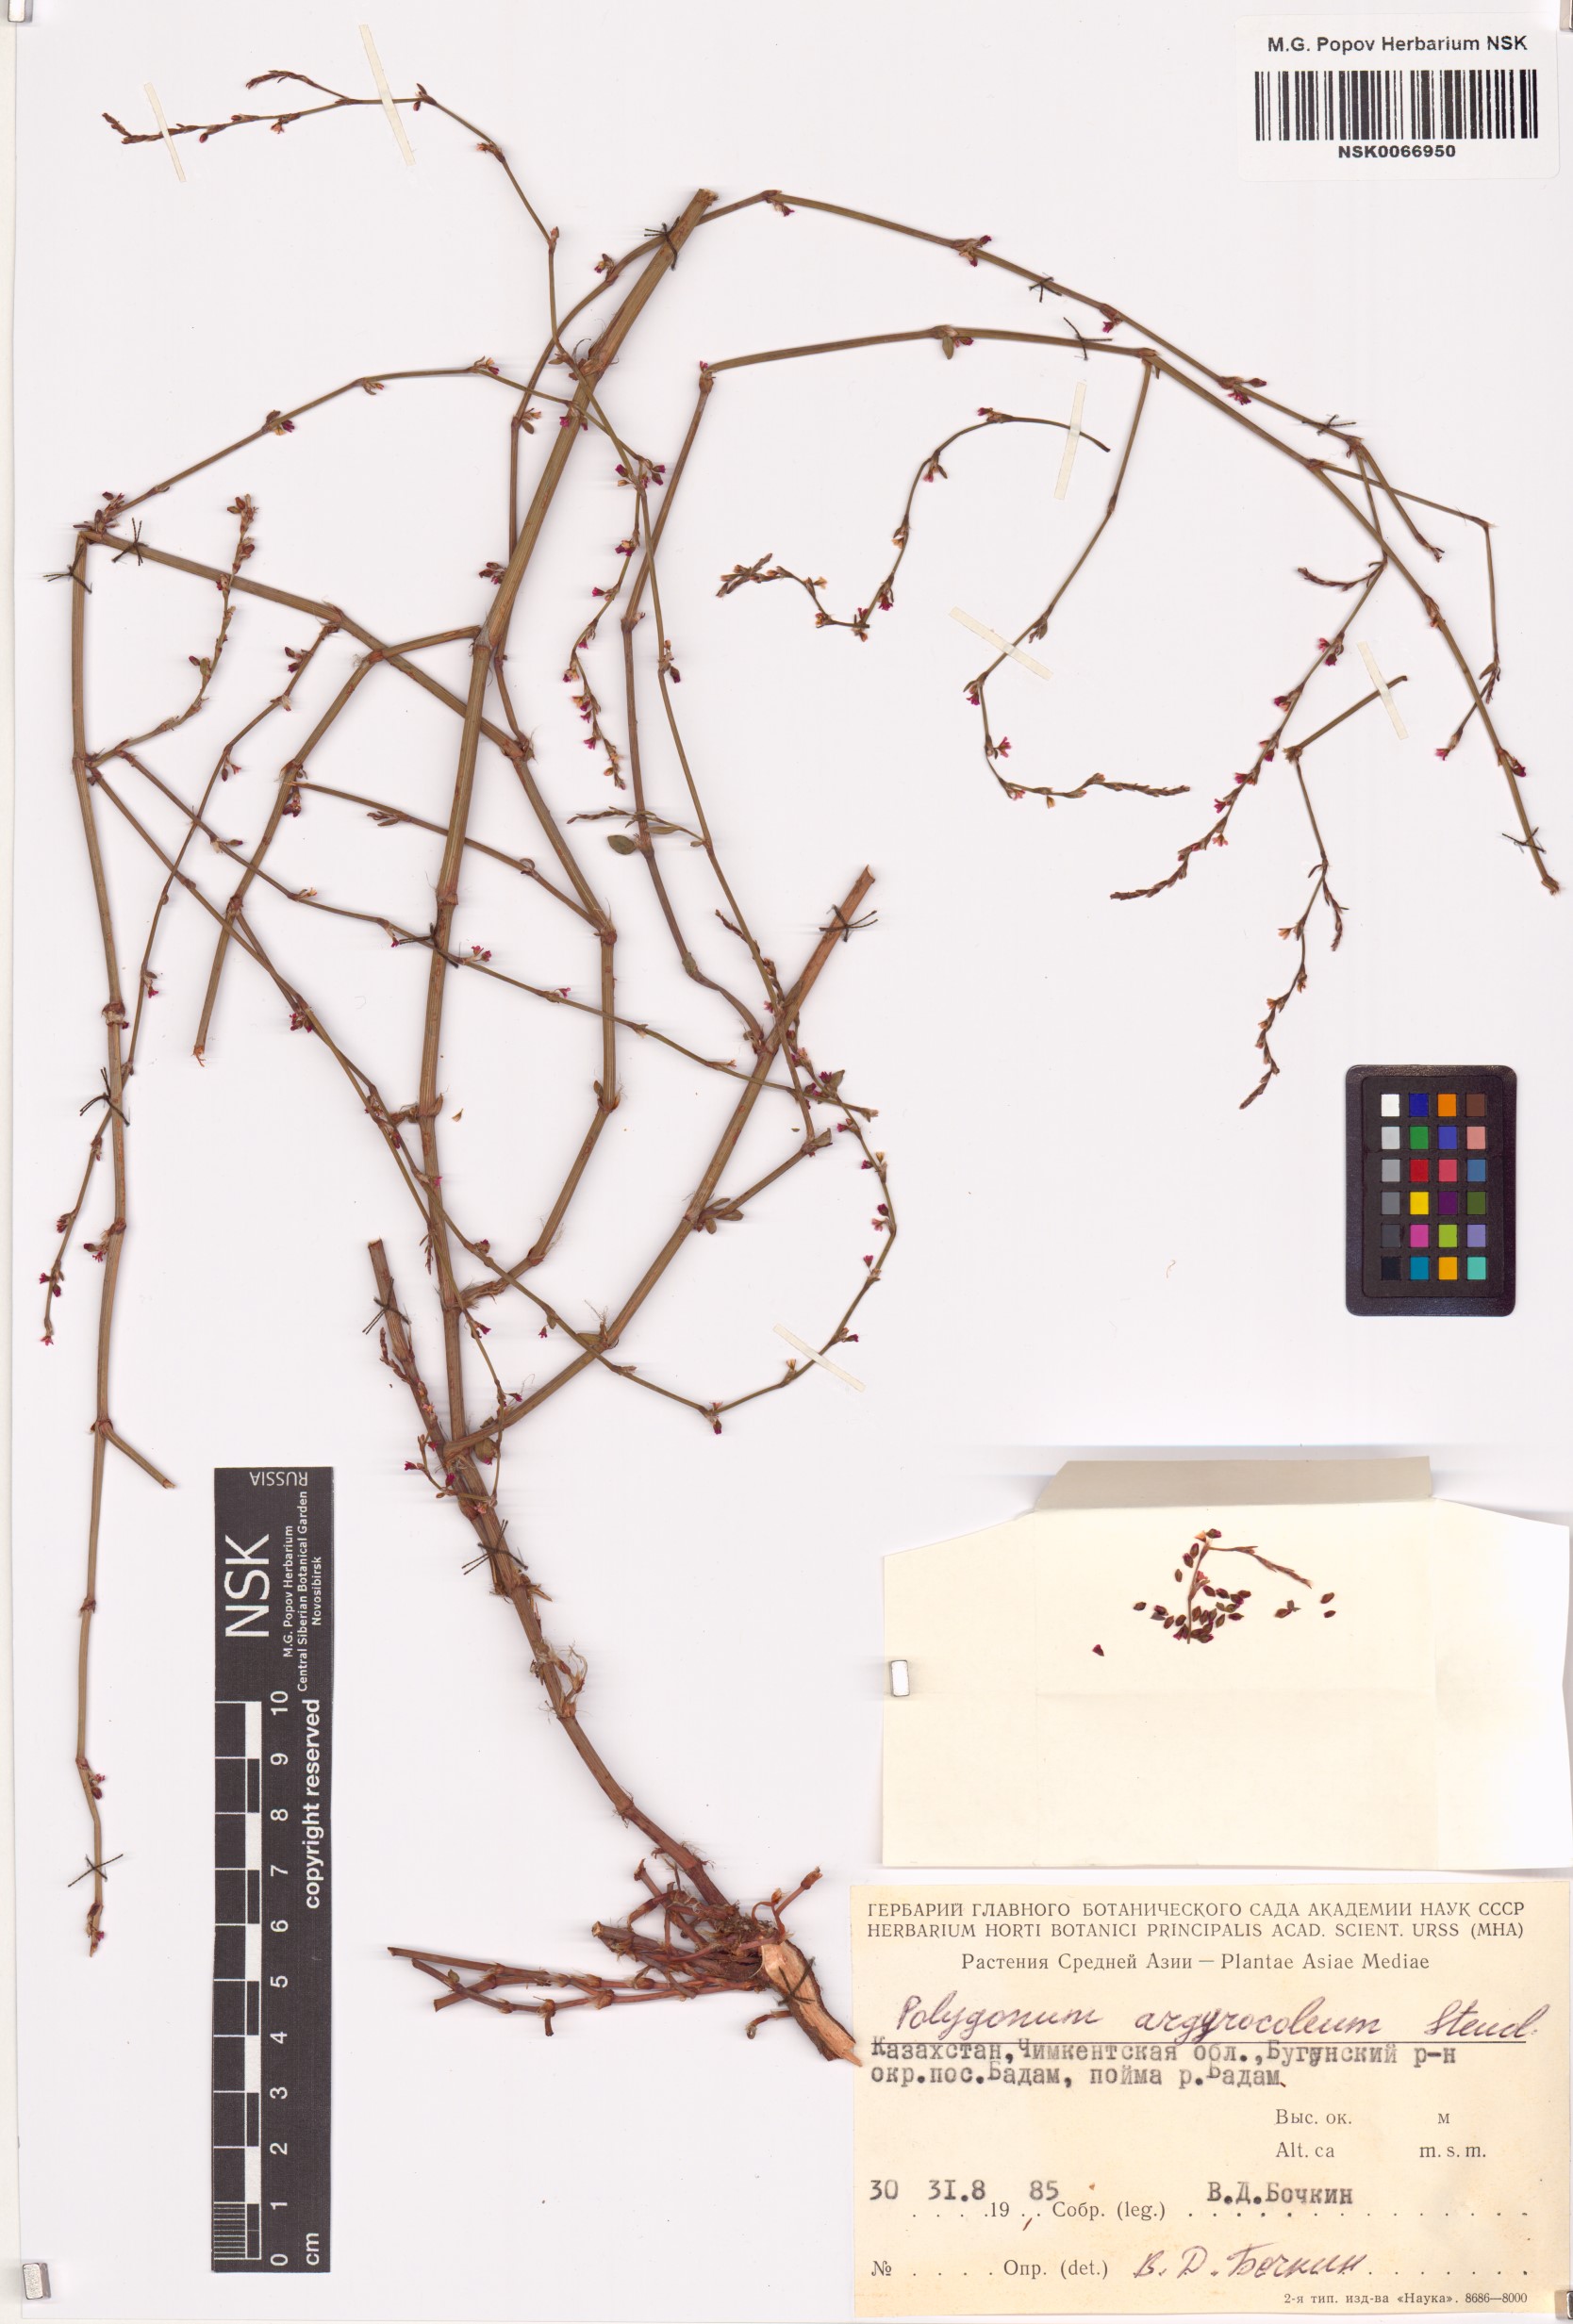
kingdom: Plantae
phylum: Tracheophyta
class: Magnoliopsida
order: Caryophyllales
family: Polygonaceae
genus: Polygonum
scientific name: Polygonum argyrocoleum
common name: Silversheath knotweed
